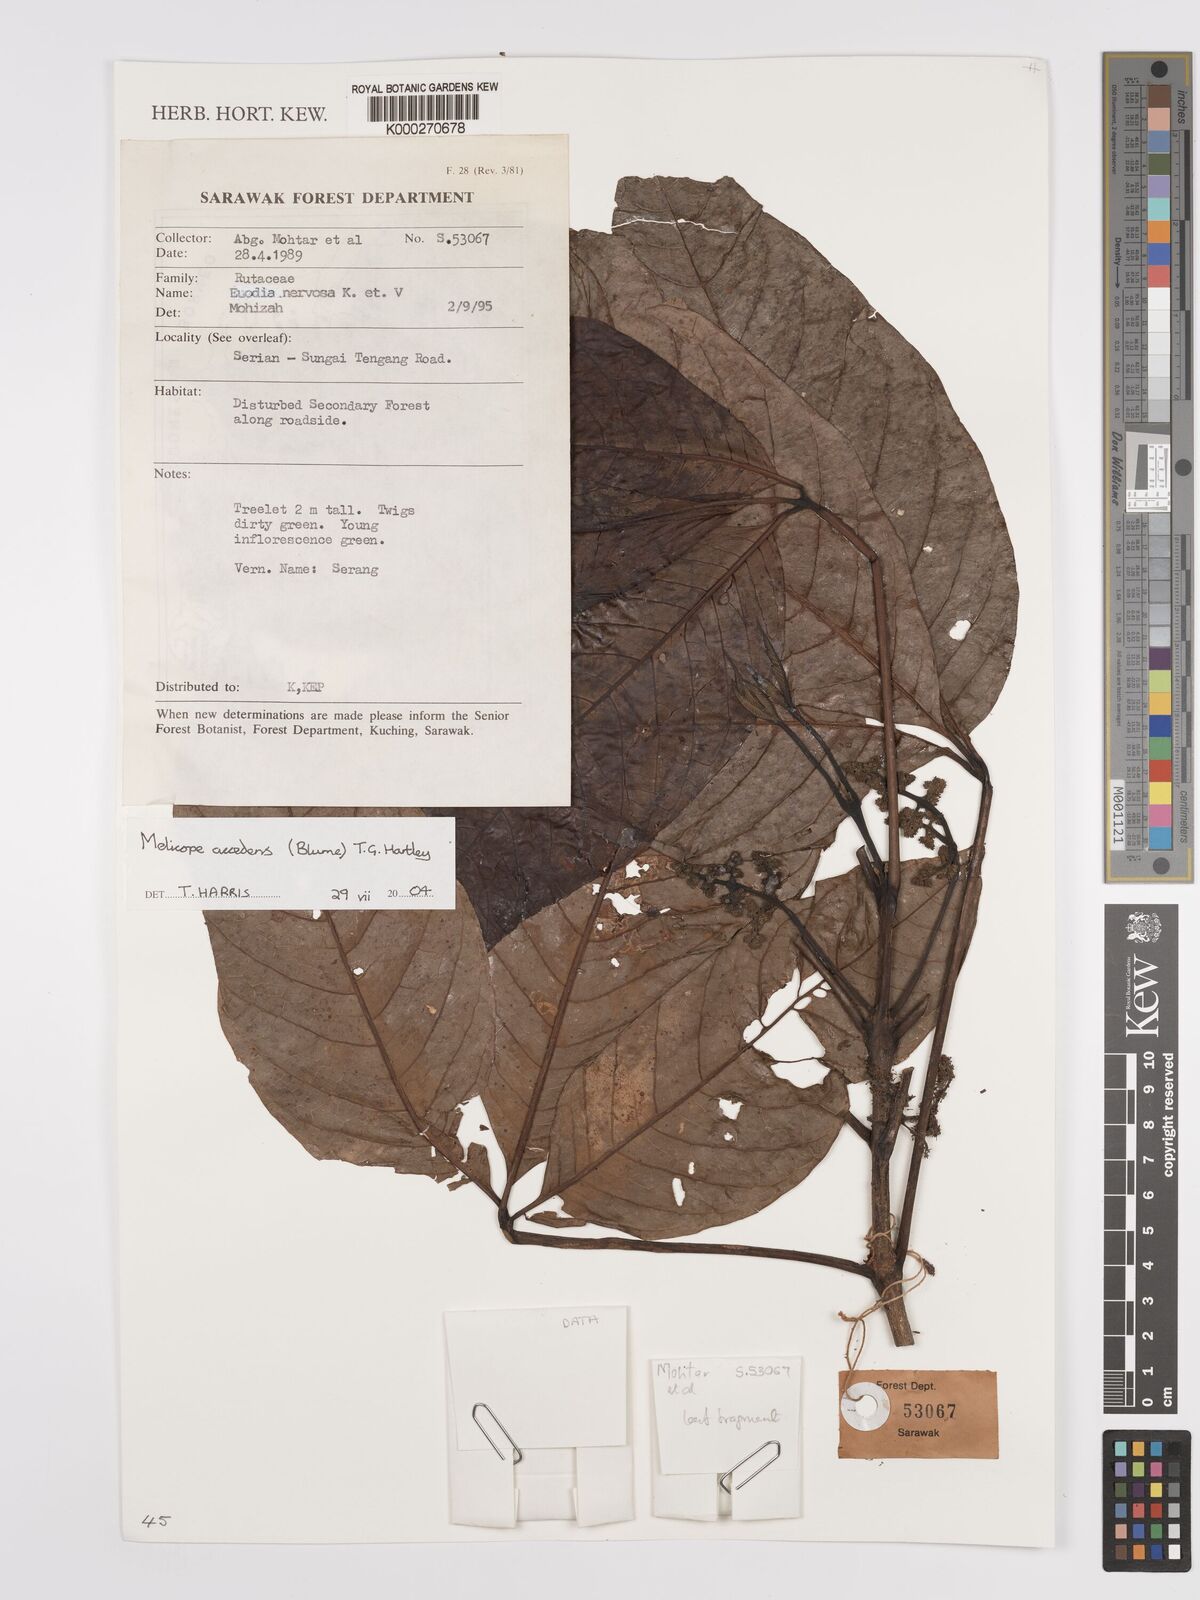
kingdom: Plantae
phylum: Tracheophyta
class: Magnoliopsida
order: Sapindales
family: Rutaceae
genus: Melicope
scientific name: Melicope accedens
